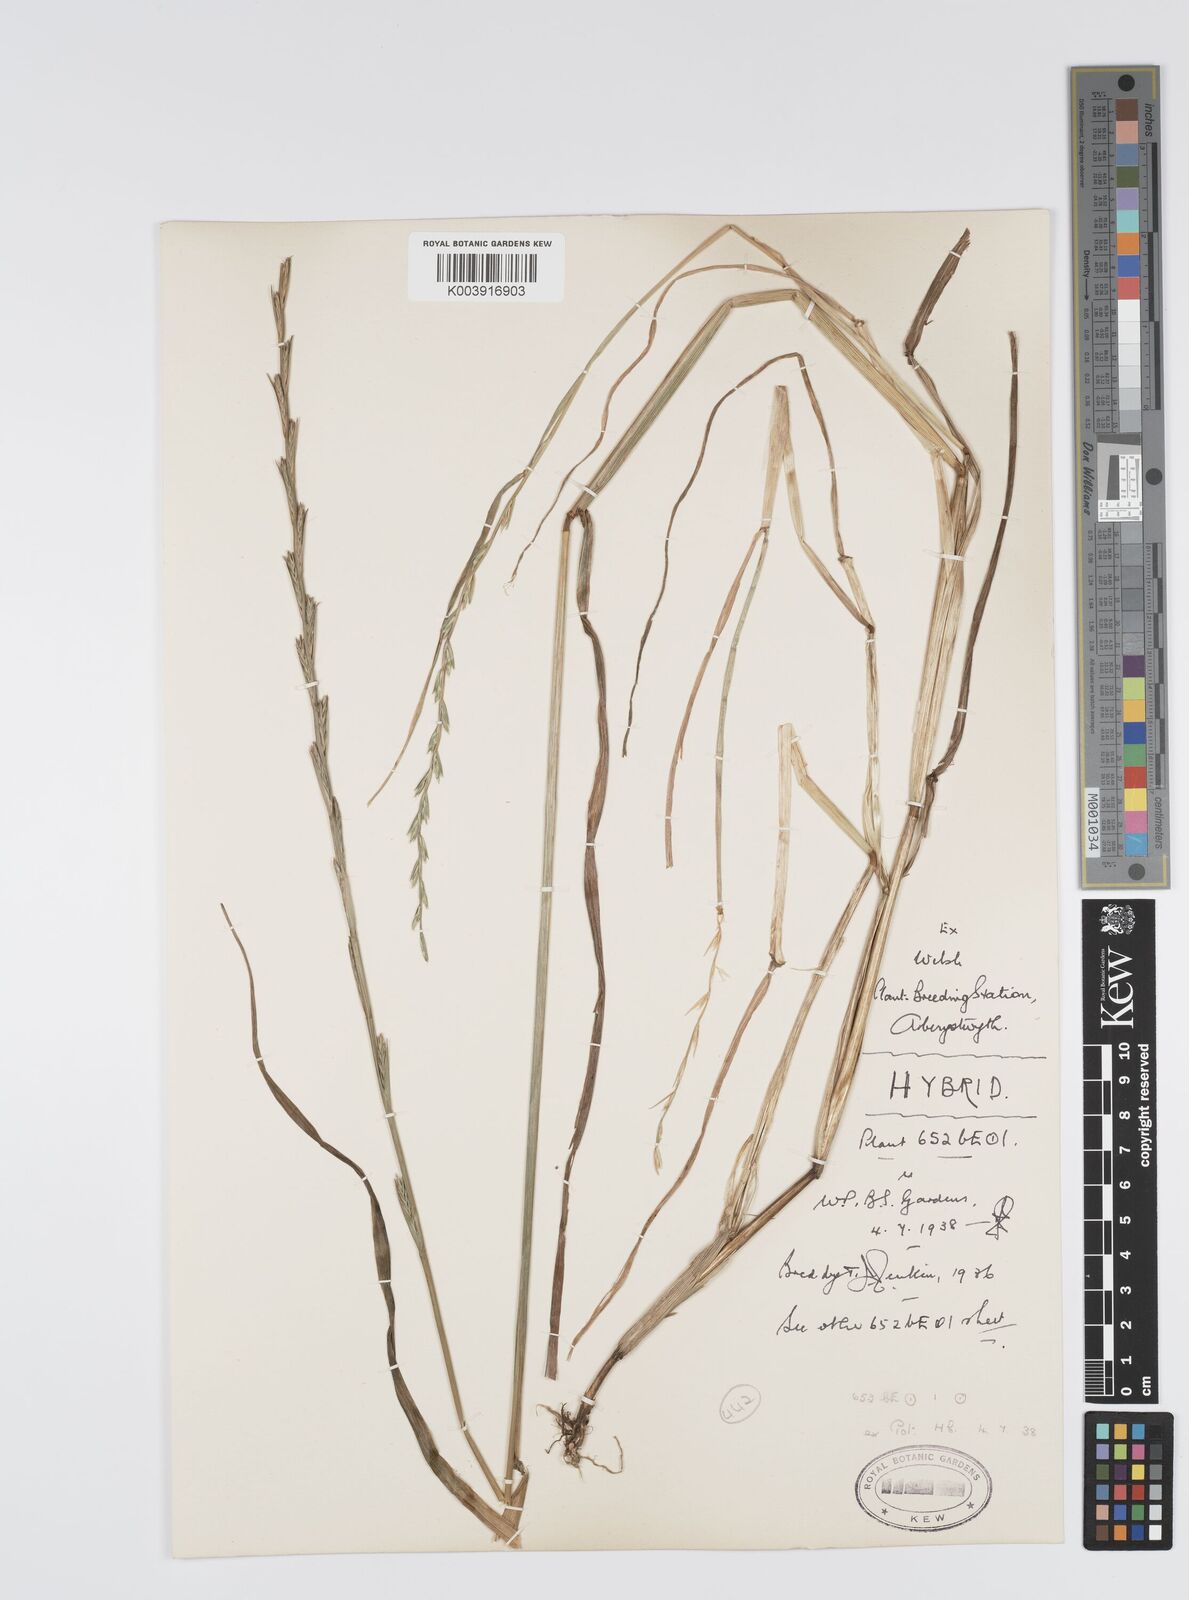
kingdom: Plantae
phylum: Tracheophyta
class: Liliopsida
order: Poales
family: Poaceae
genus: Lolium
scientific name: Lolium multiflorum
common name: Annual ryegrass
